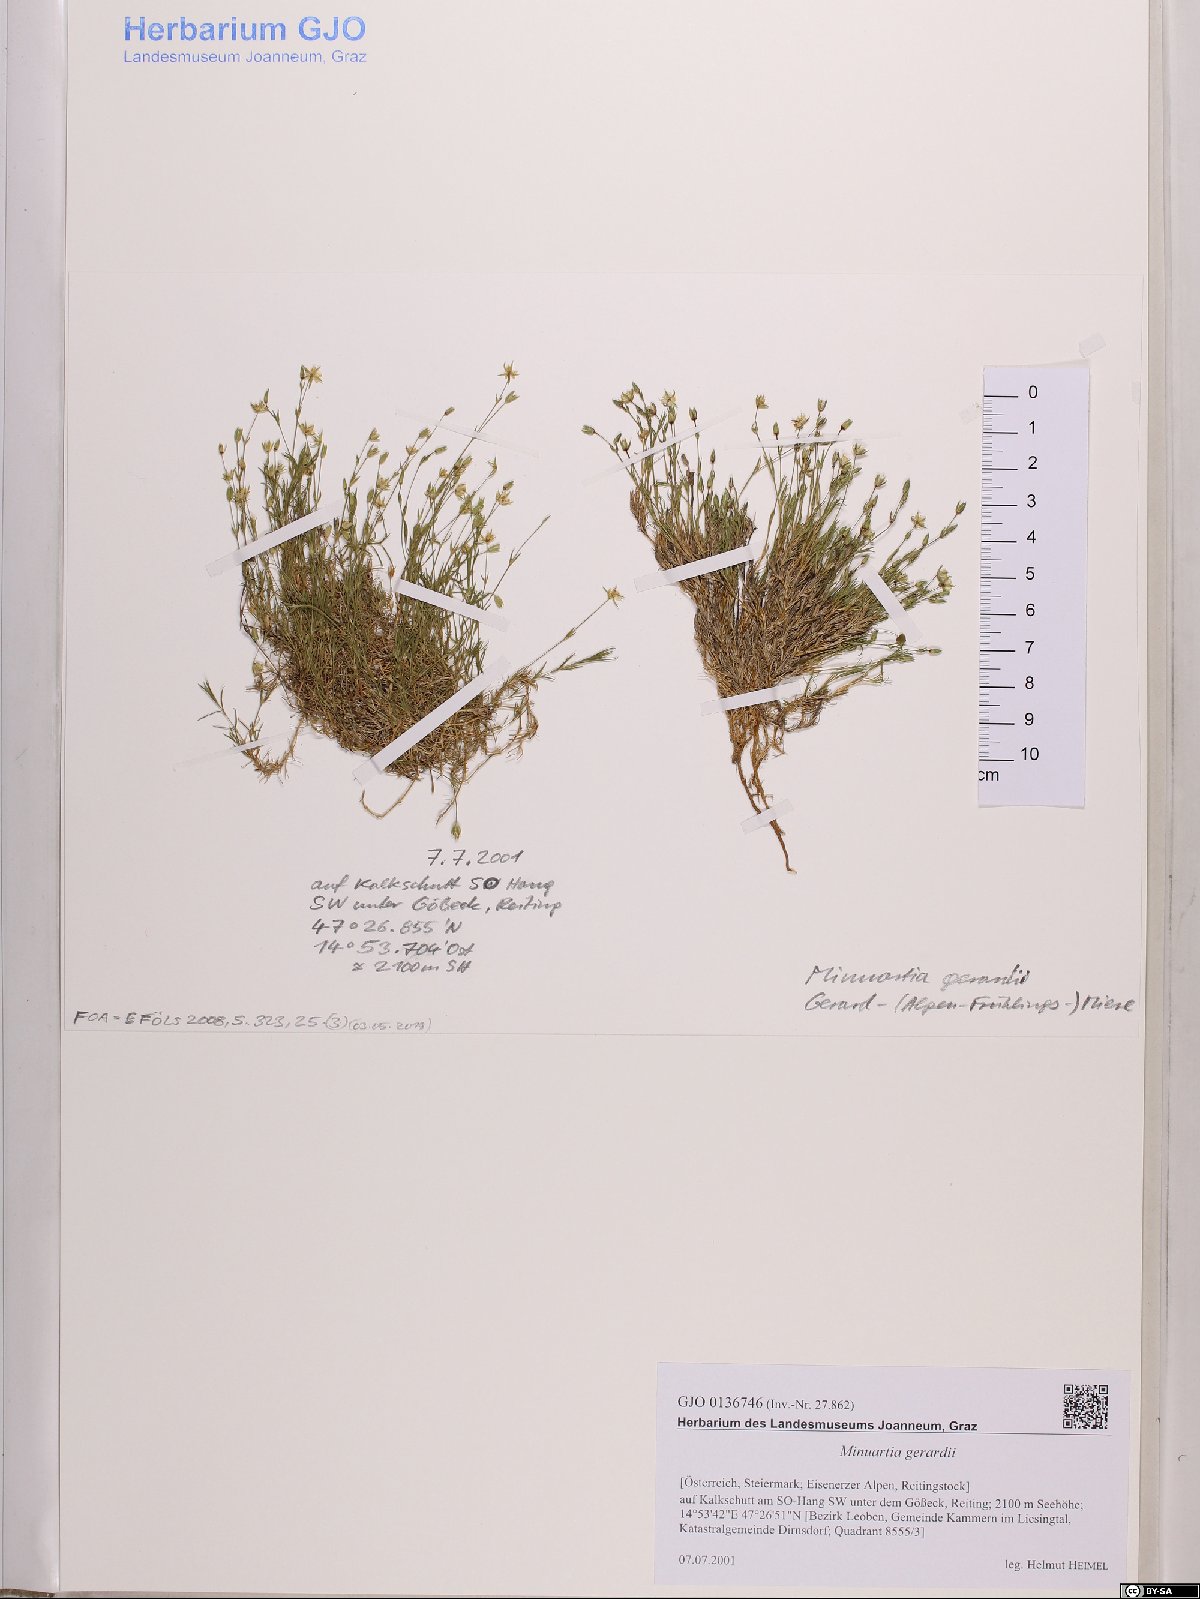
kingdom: Plantae
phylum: Tracheophyta
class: Magnoliopsida
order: Caryophyllales
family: Caryophyllaceae
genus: Sabulina
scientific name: Sabulina verna
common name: Spring sandwort
